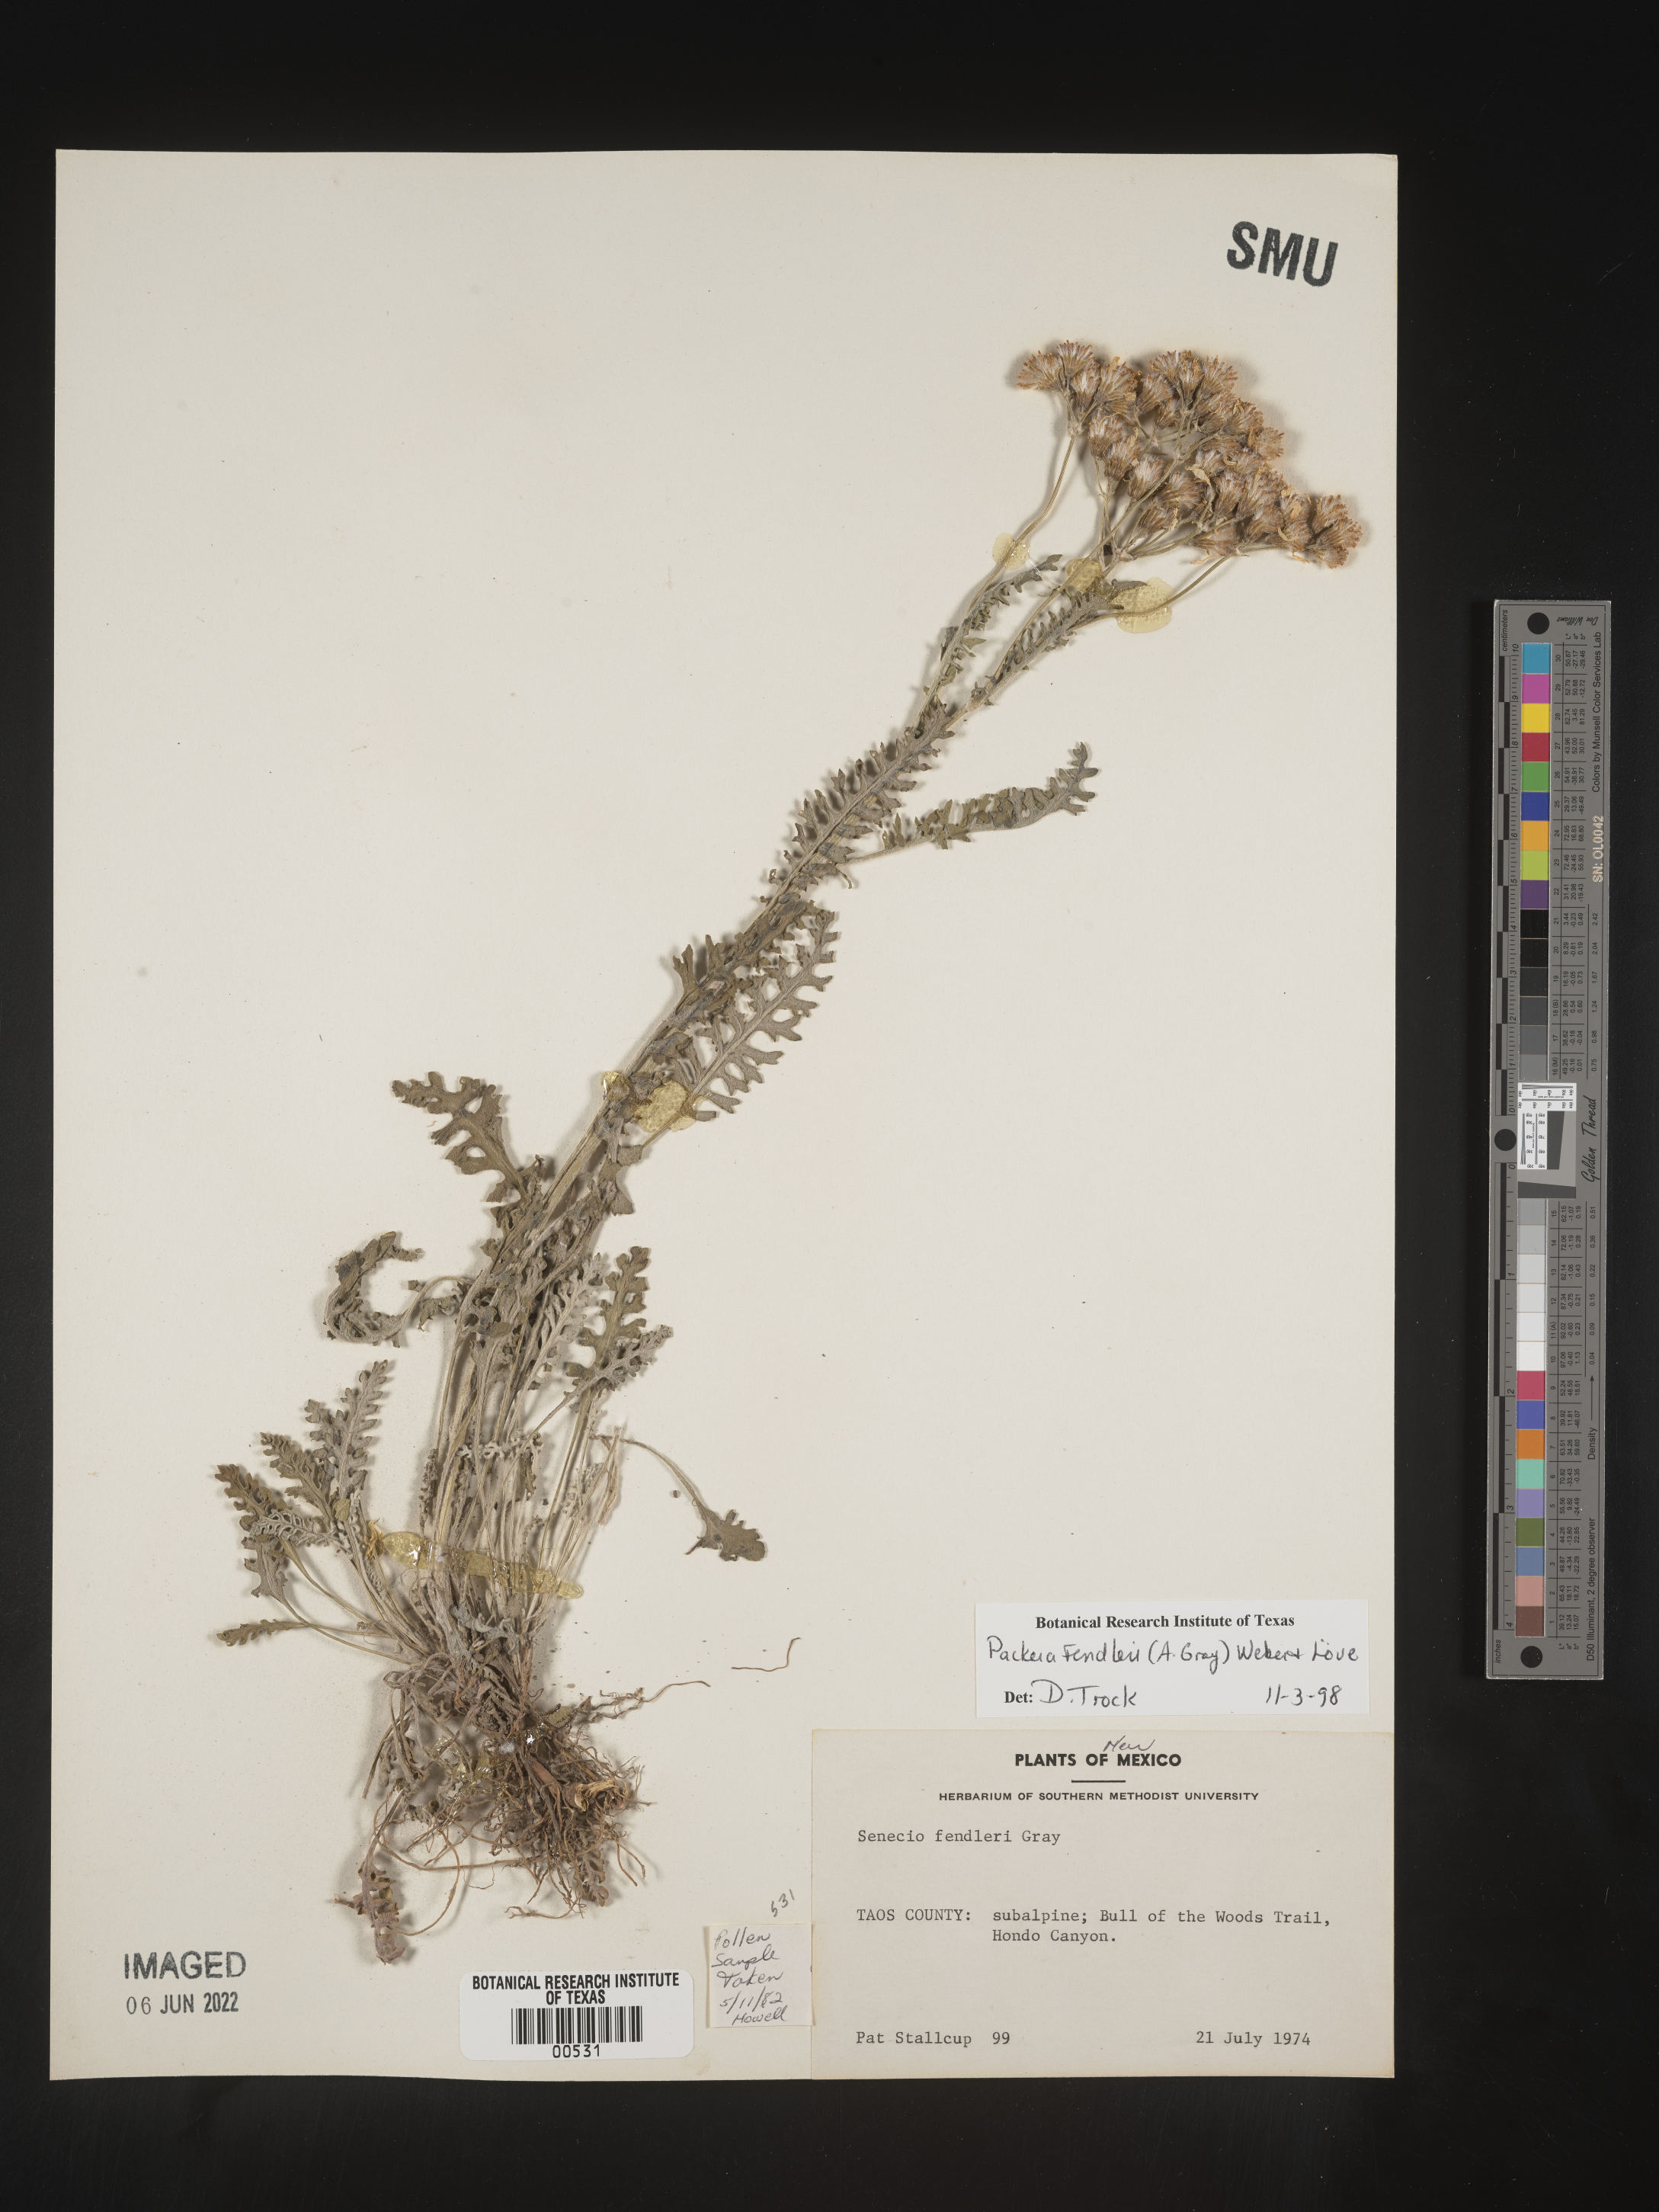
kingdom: Plantae
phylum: Tracheophyta
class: Magnoliopsida
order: Asterales
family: Asteraceae
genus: Packera
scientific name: Packera fendleri
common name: Notch-leaf butterweed
